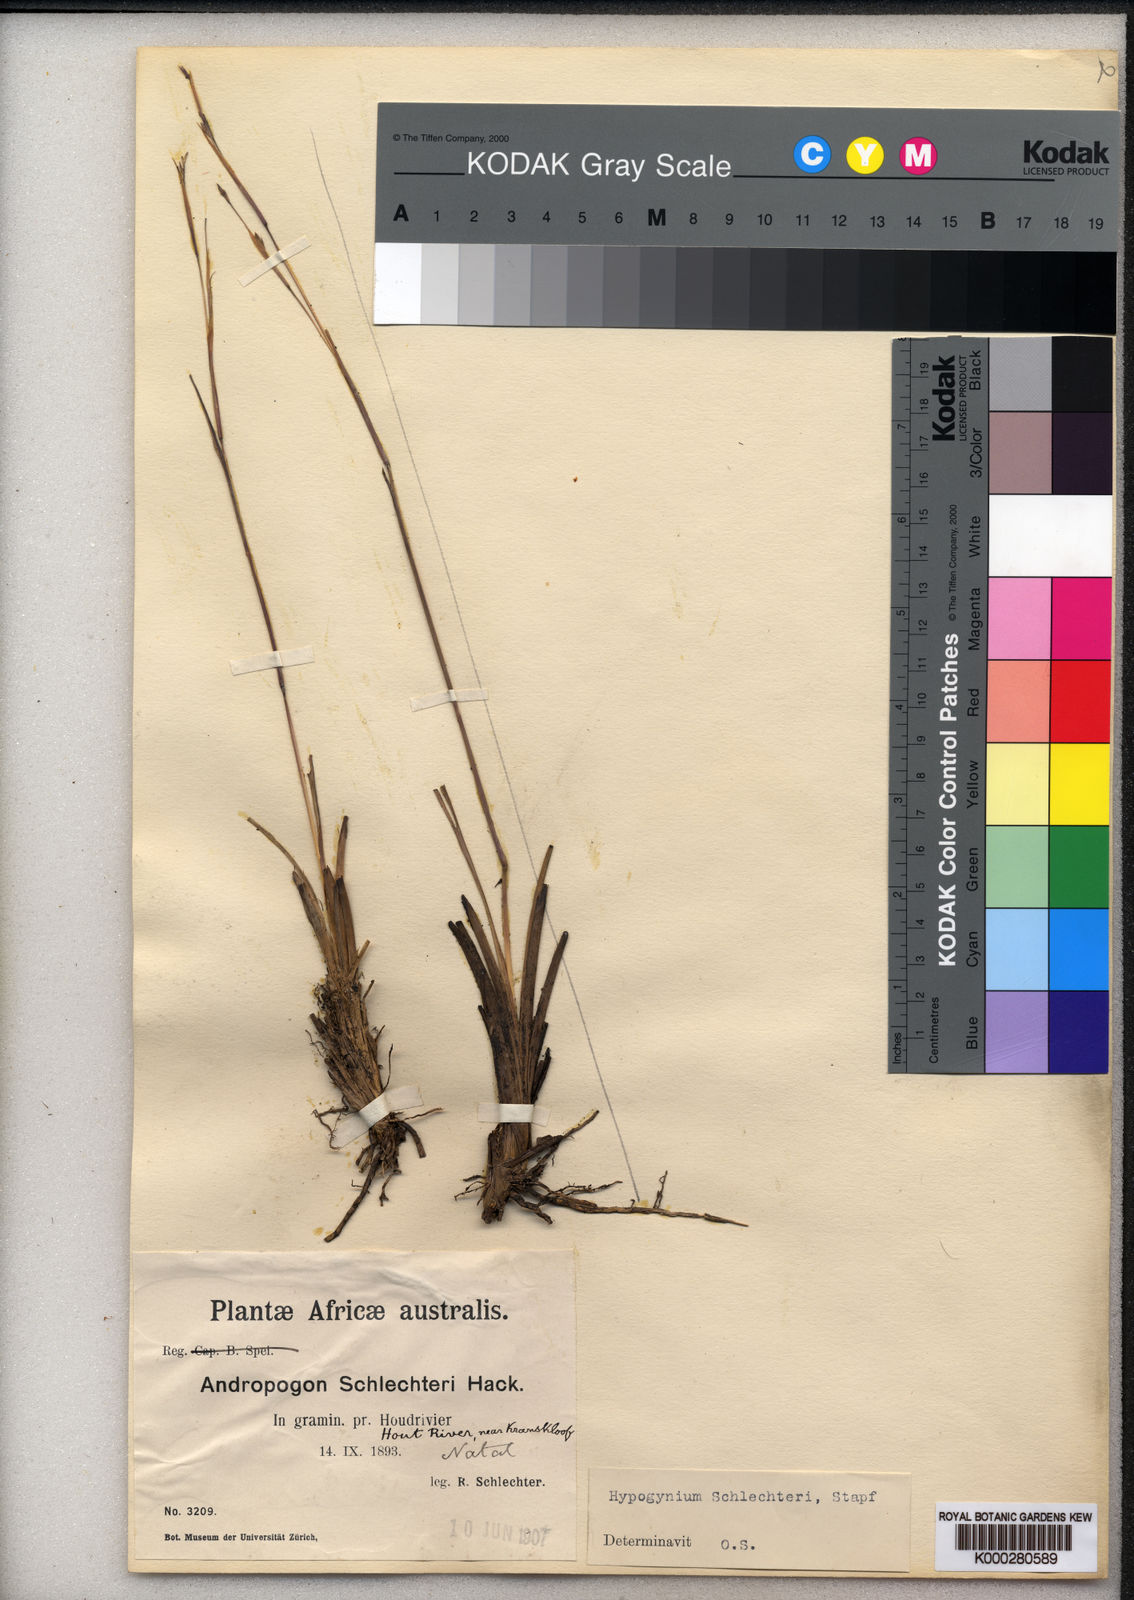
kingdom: Plantae
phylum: Tracheophyta
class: Liliopsida
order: Poales
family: Poaceae
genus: Andropogon
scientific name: Andropogon festuciformis
